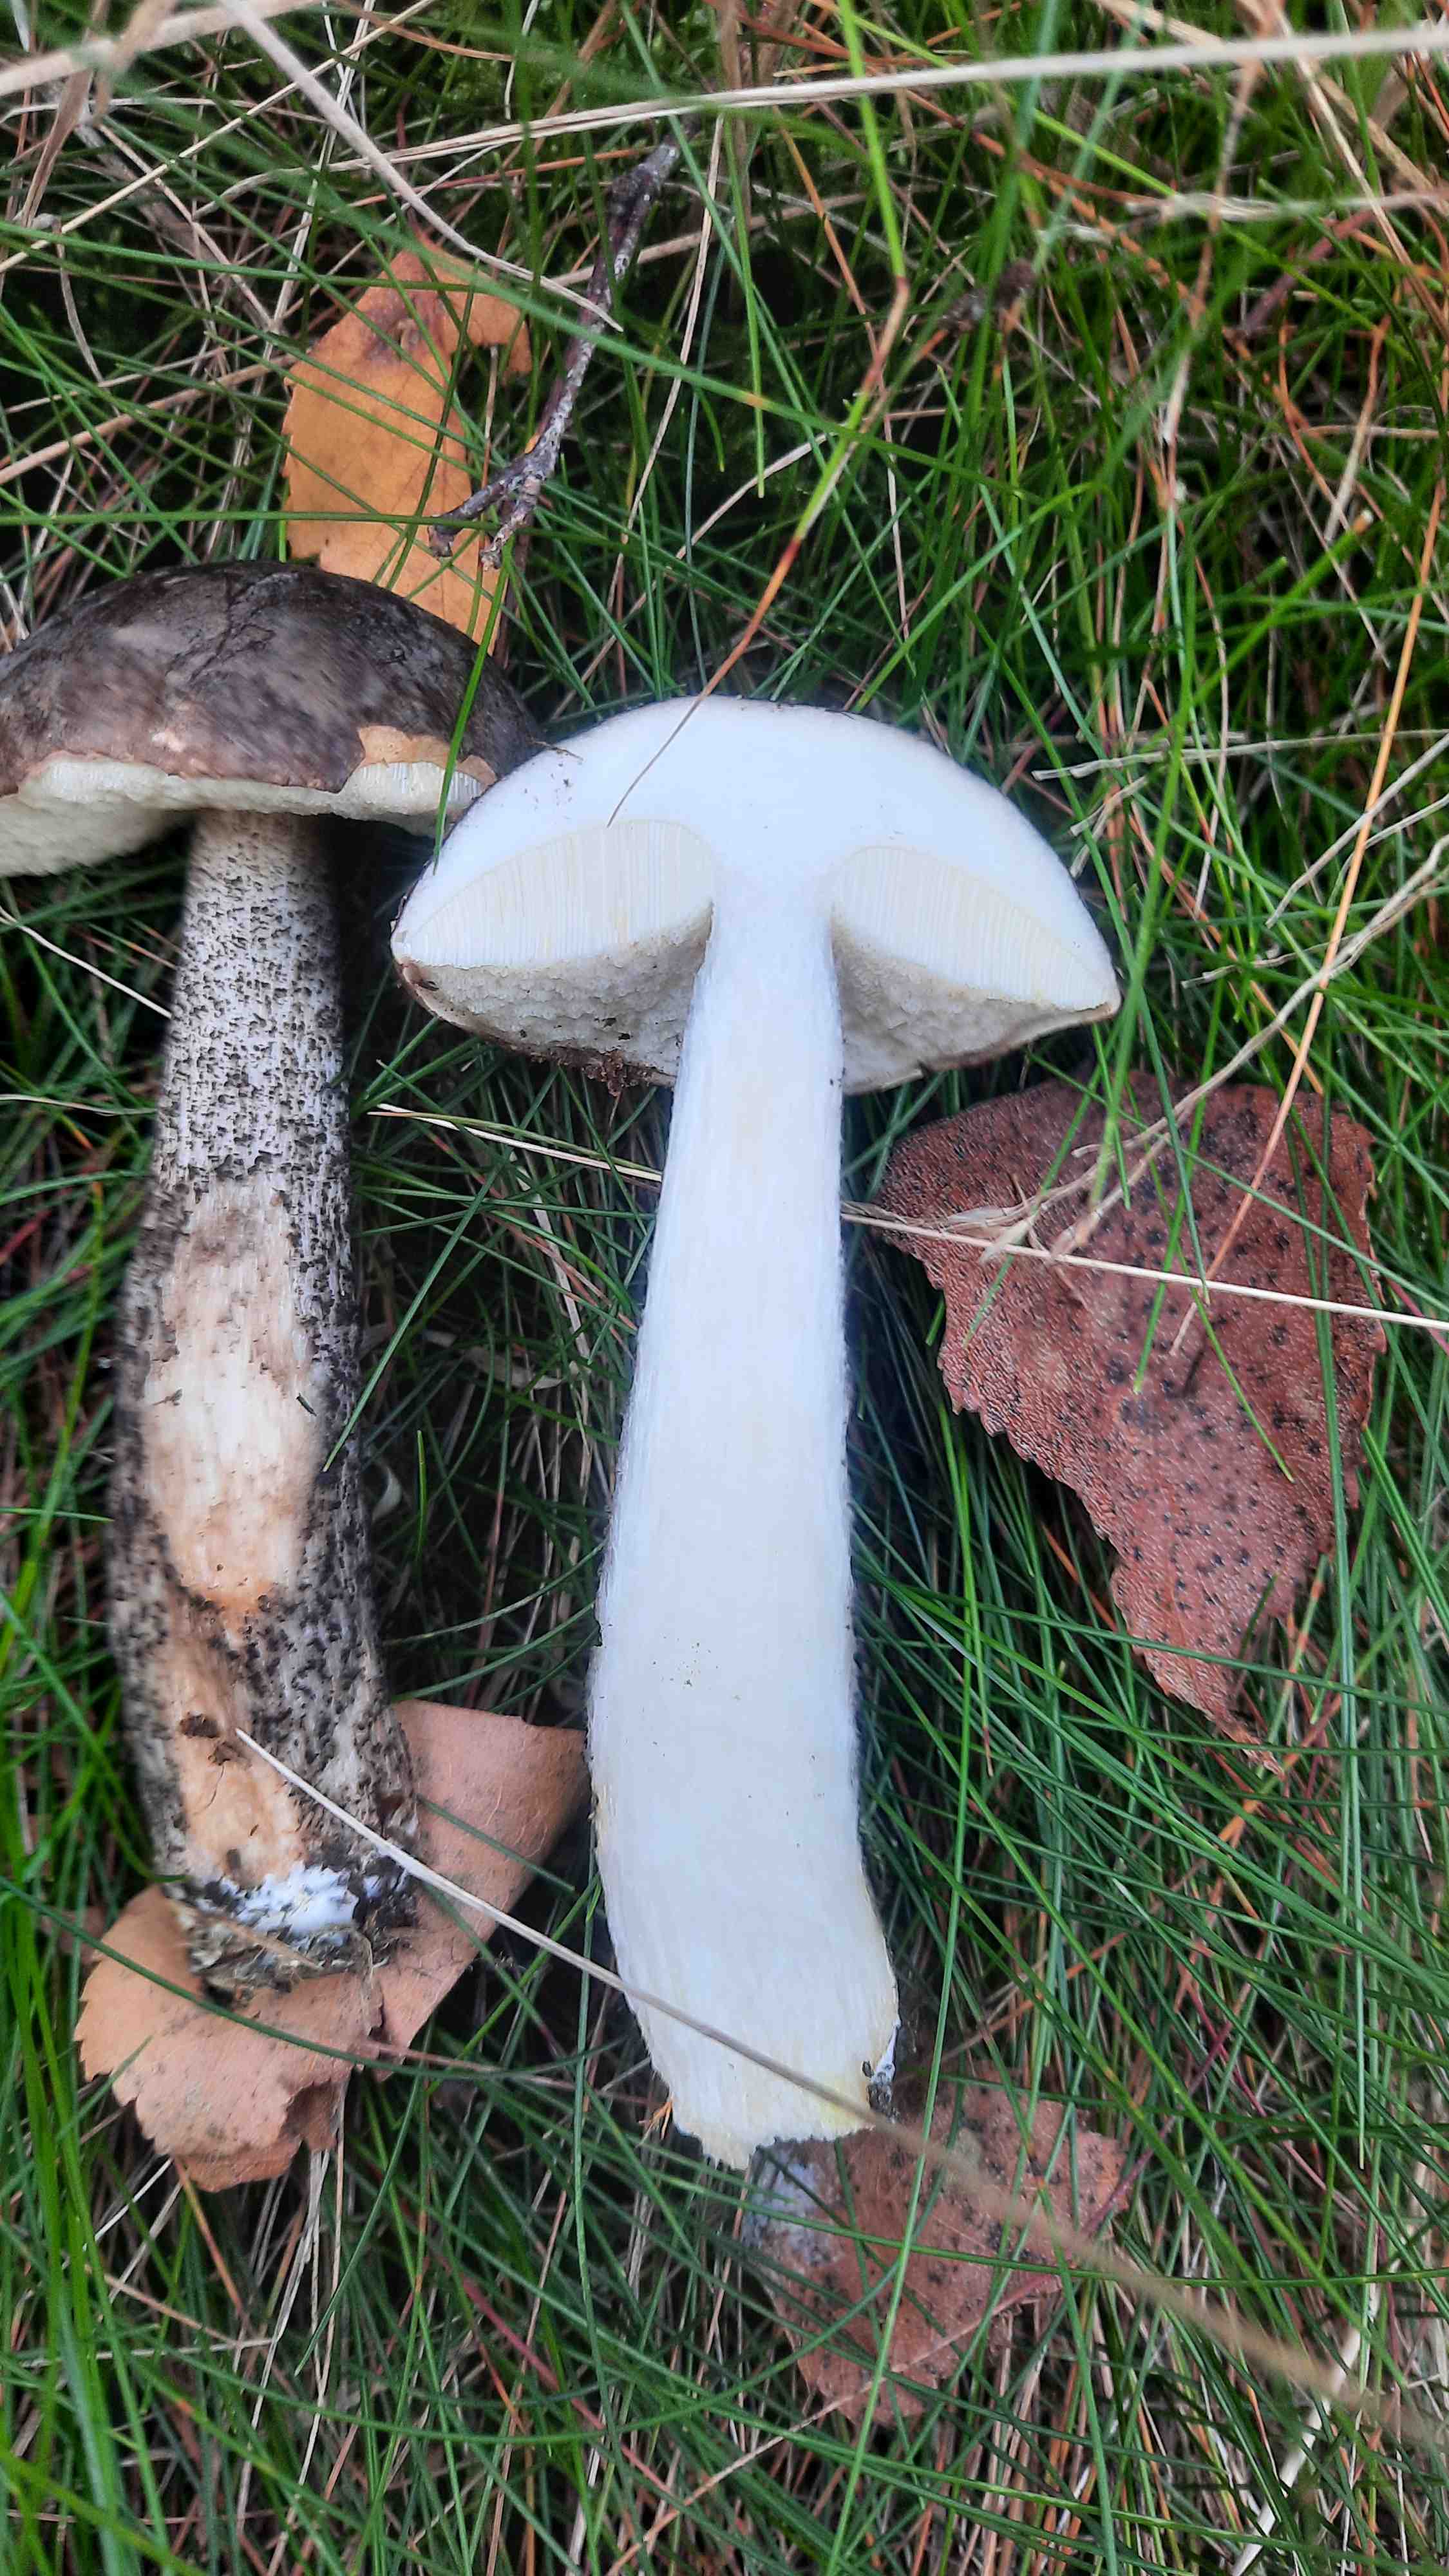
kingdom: Fungi
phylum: Basidiomycota
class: Agaricomycetes
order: Boletales
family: Boletaceae
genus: Leccinum
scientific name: Leccinum
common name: skælrørhat
